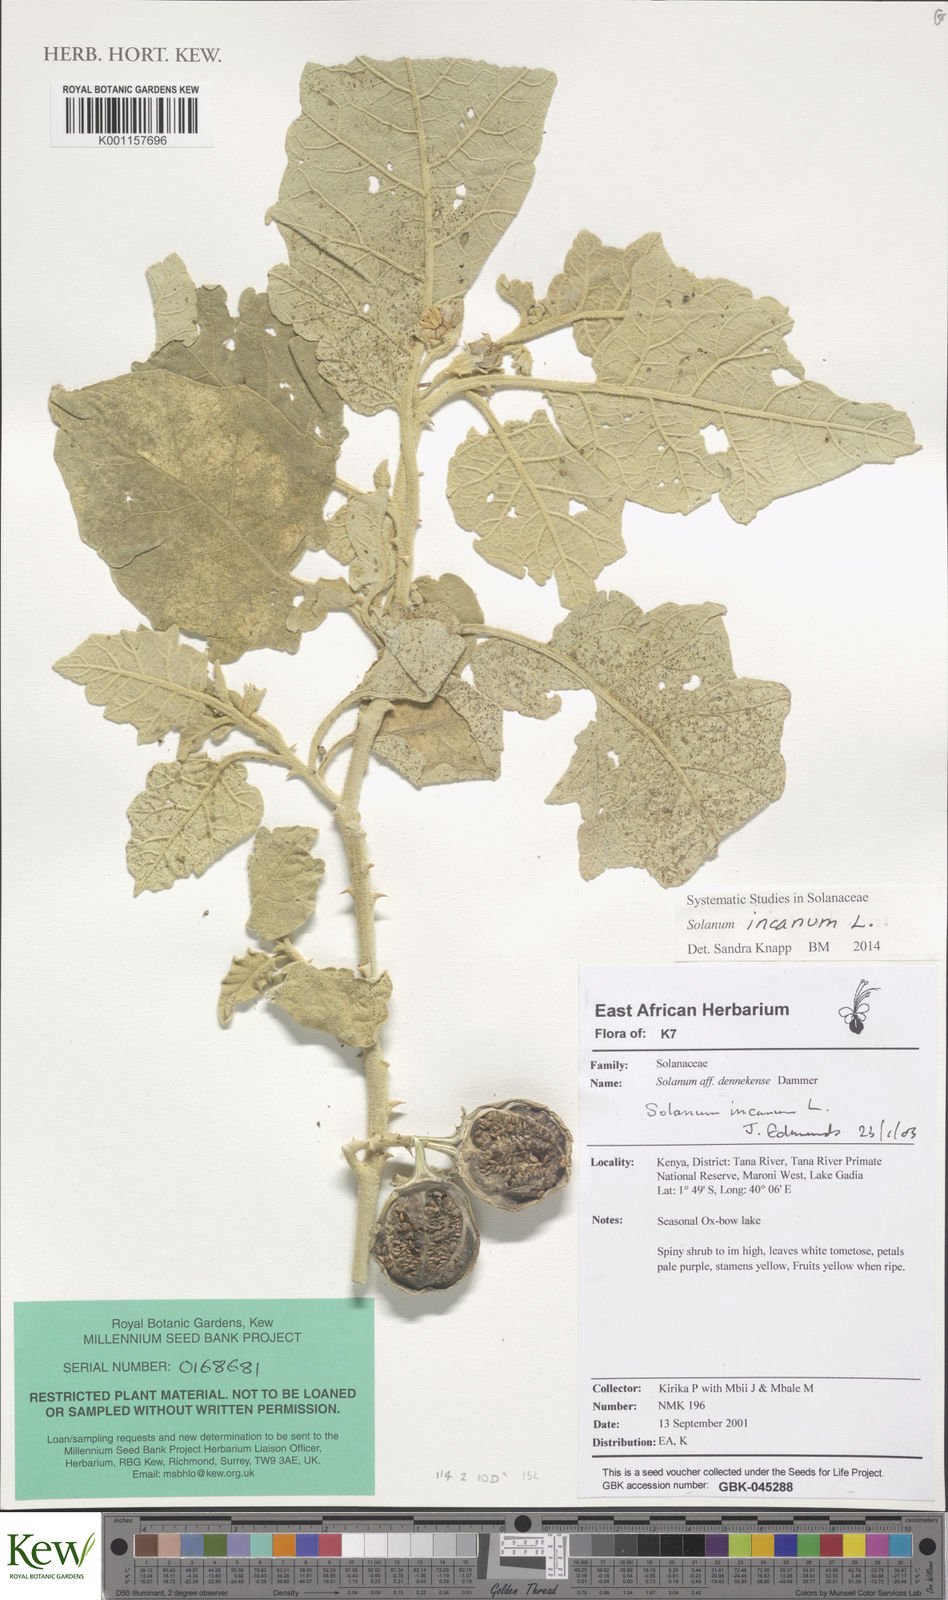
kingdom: Plantae
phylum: Tracheophyta
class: Magnoliopsida
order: Solanales
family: Solanaceae
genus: Solanum
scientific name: Solanum incanum
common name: Bitter apple
